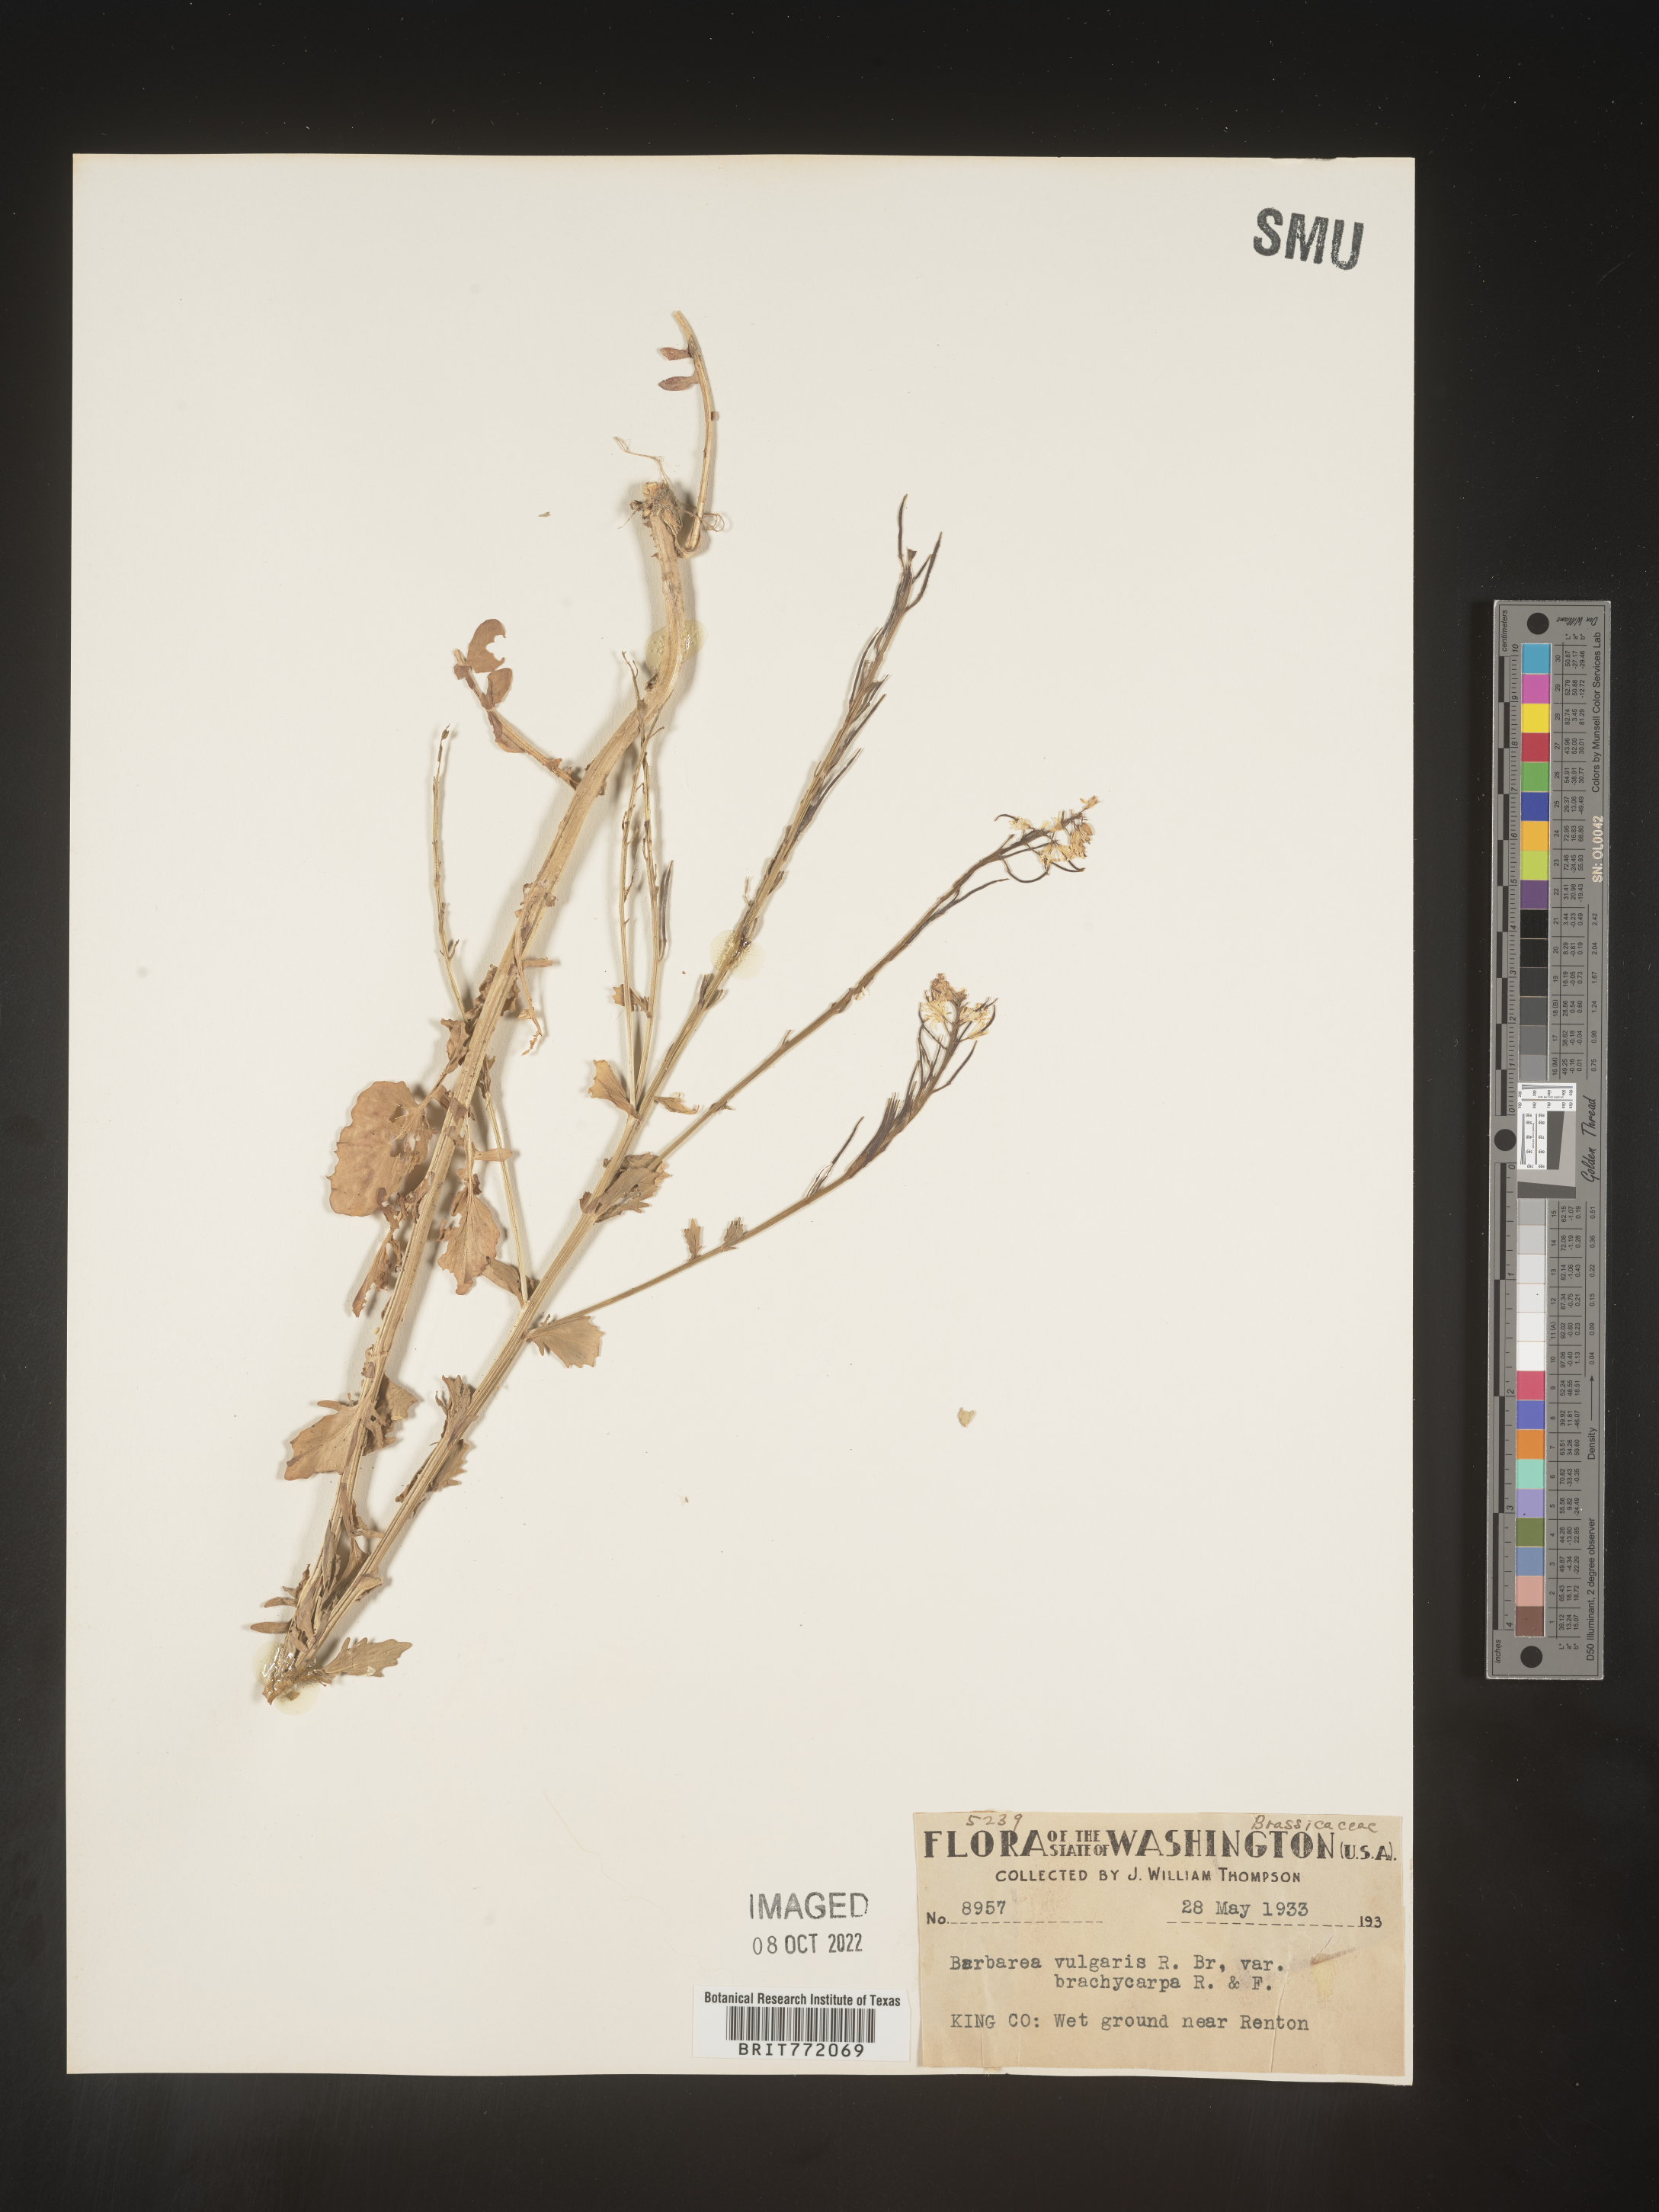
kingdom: Plantae
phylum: Tracheophyta
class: Magnoliopsida
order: Brassicales
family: Brassicaceae
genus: Barbarea
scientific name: Barbarea vulgaris
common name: Cressy-greens
